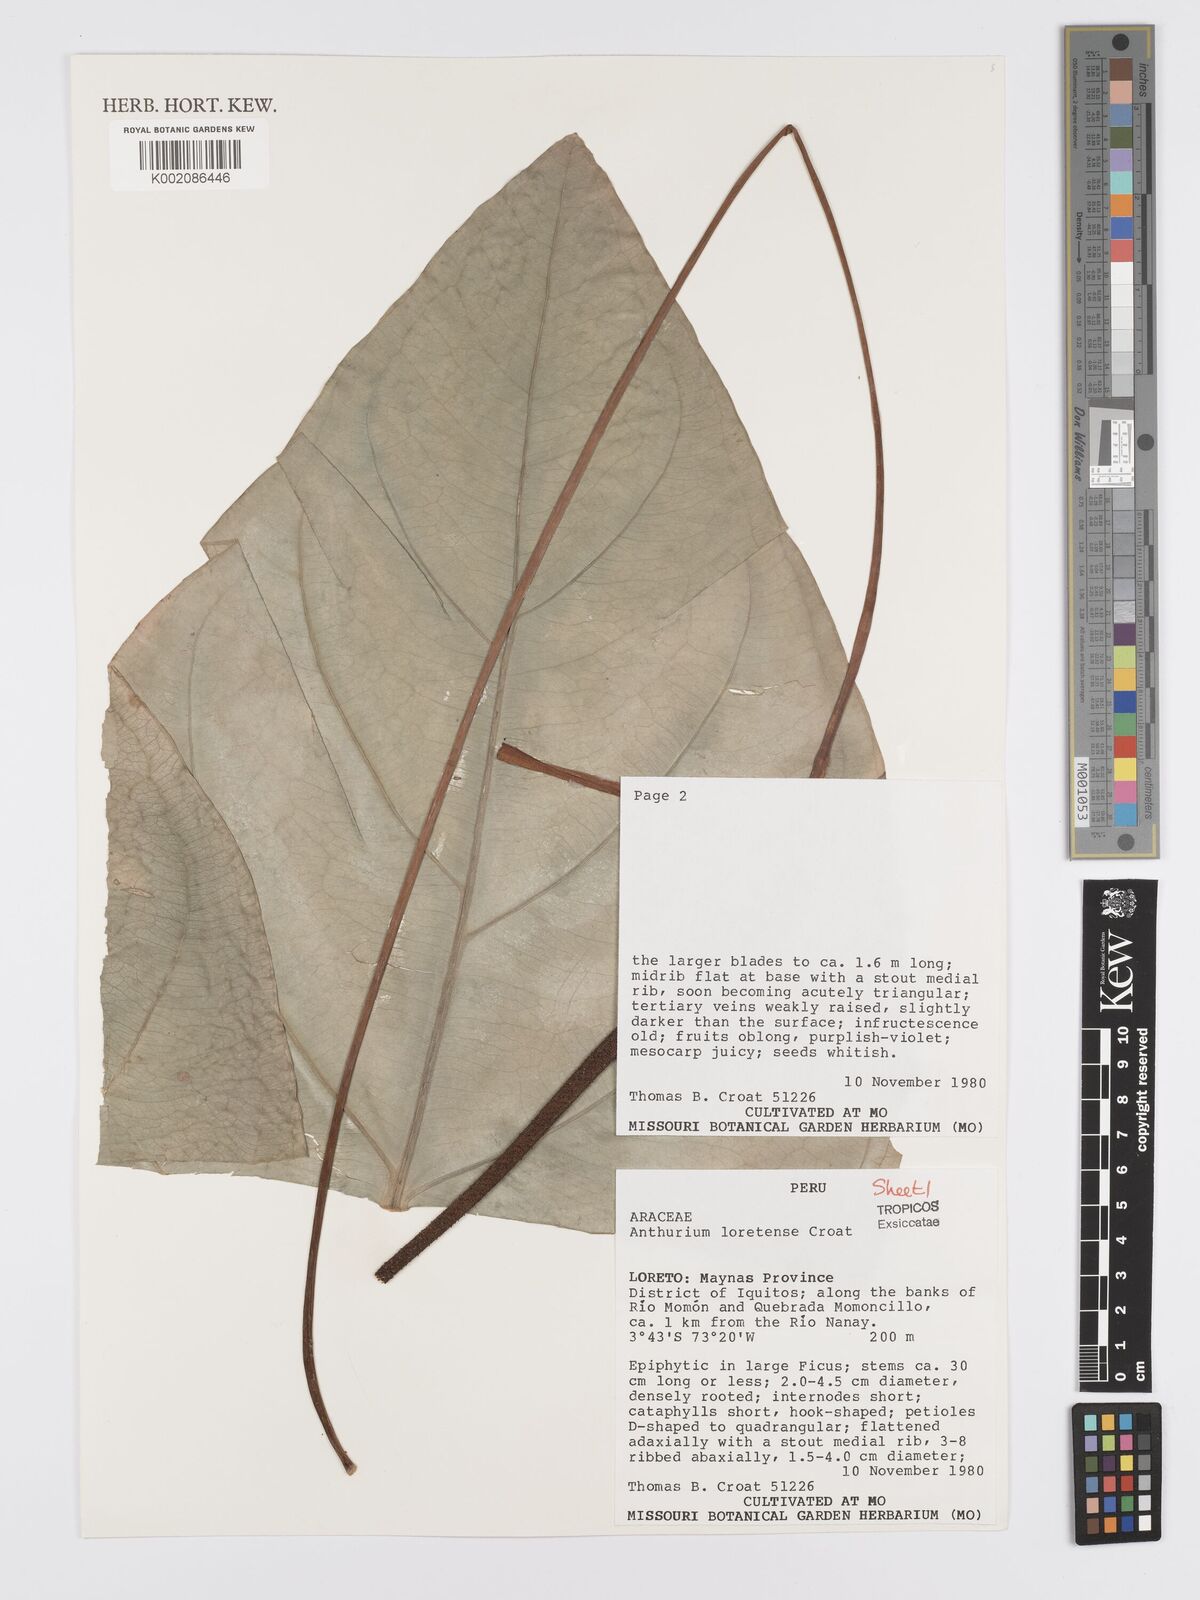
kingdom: Plantae
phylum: Tracheophyta
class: Liliopsida
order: Alismatales
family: Araceae
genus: Anthurium
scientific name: Anthurium loretense
